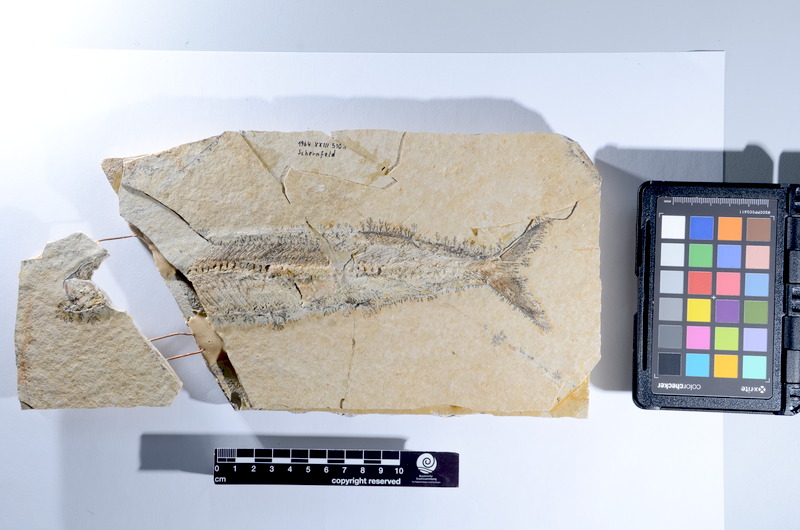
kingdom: Animalia
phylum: Chordata
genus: Thrissops
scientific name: Thrissops
